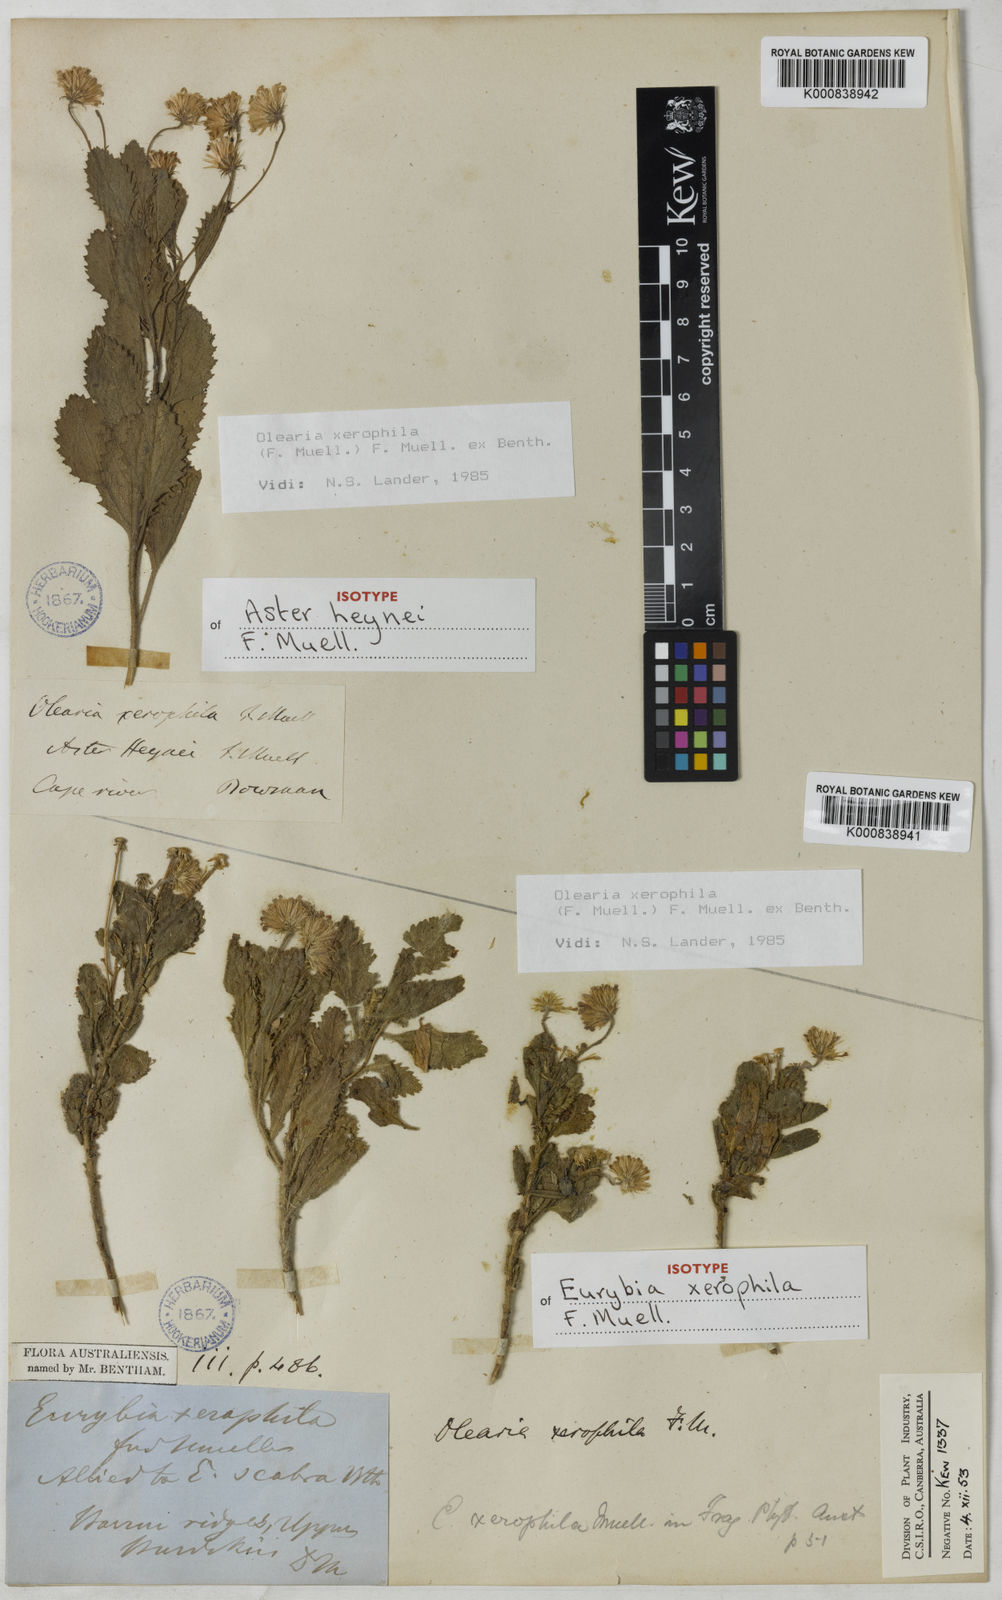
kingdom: Plantae
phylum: Tracheophyta
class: Magnoliopsida
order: Asterales
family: Asteraceae
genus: Landerolaria
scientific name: Landerolaria xerophylla
